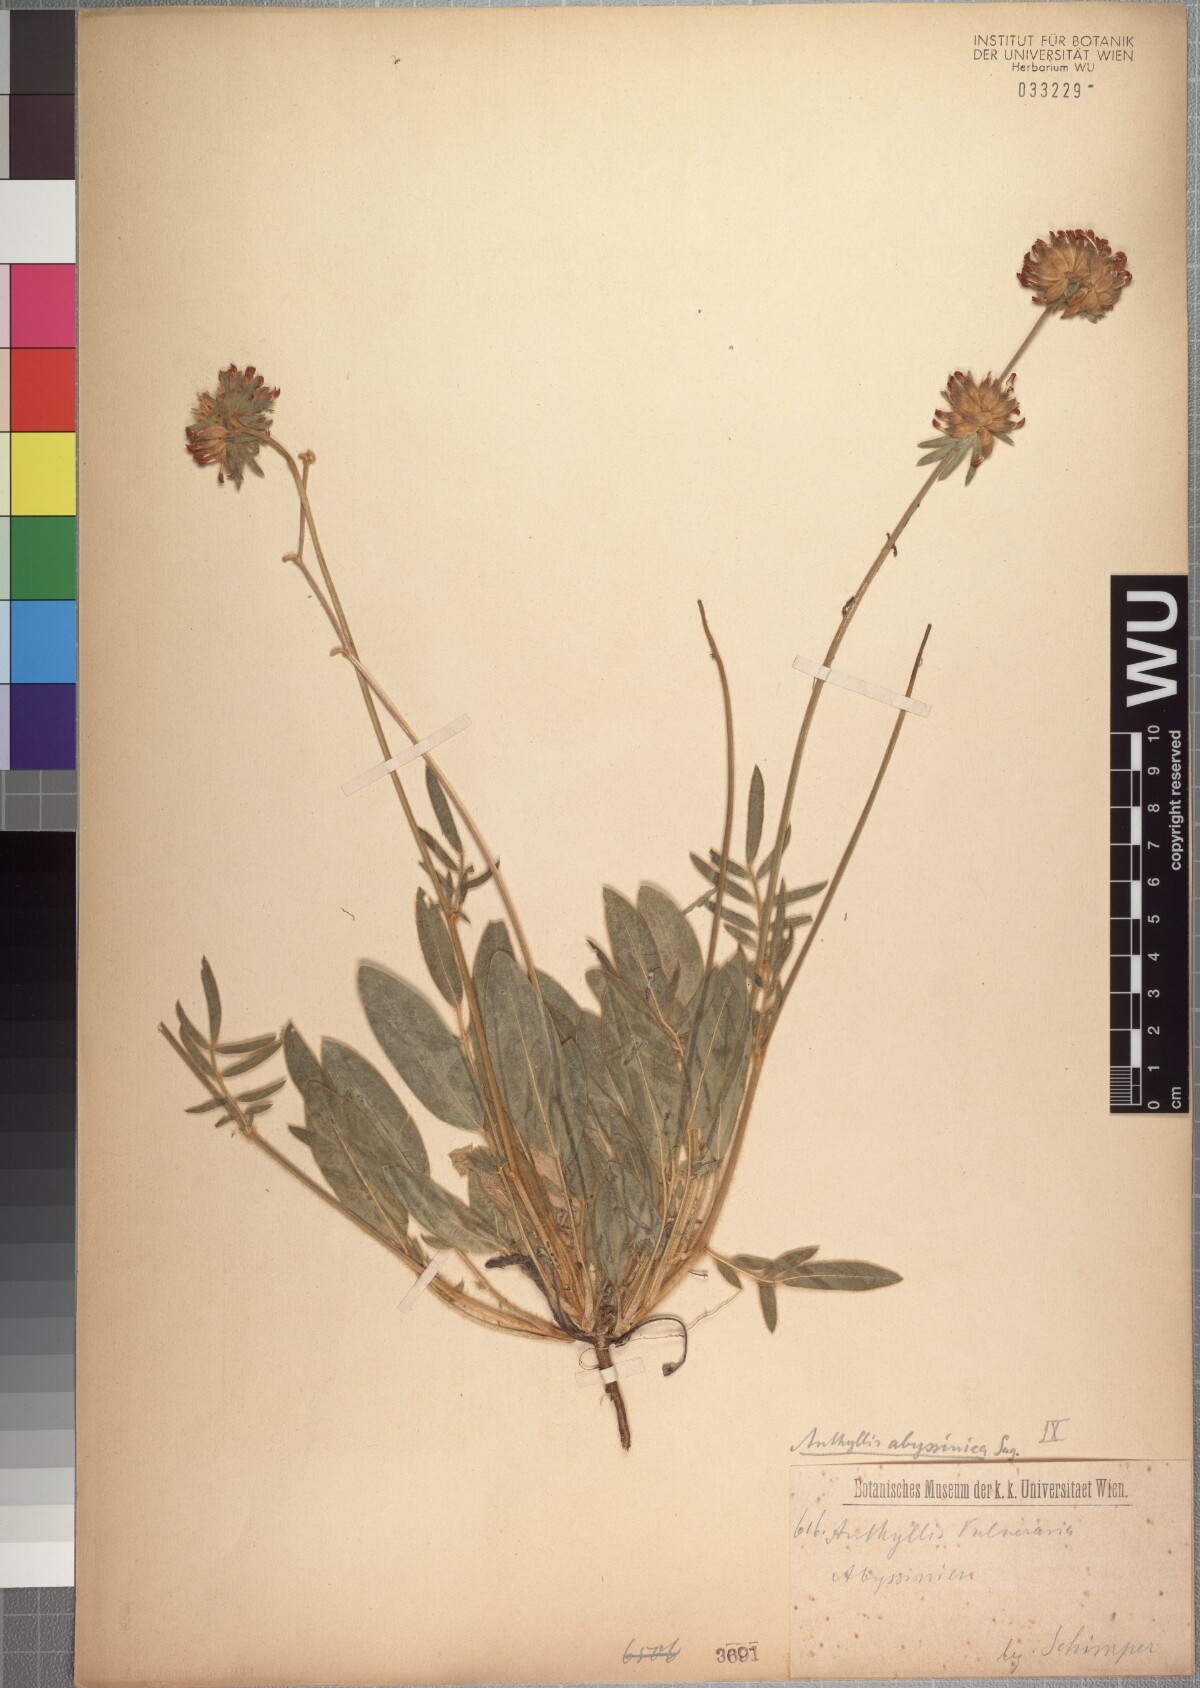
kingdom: Plantae
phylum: Tracheophyta
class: Magnoliopsida
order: Fabales
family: Fabaceae
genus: Anthyllis
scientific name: Anthyllis vulneraria
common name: Kidney vetch
